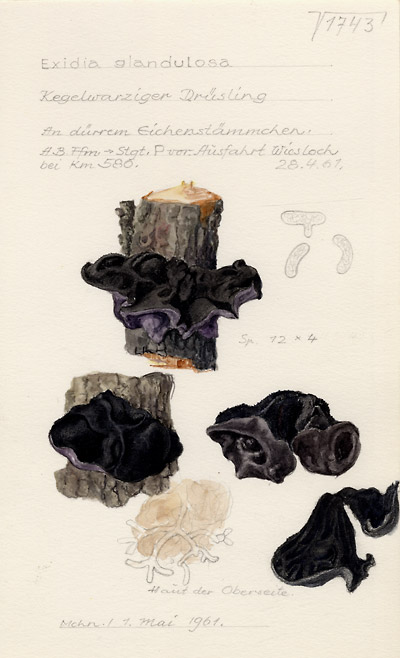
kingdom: Fungi
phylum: Basidiomycota
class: Agaricomycetes
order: Auriculariales
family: Auriculariaceae
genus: Exidia
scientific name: Exidia glandulosa
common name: Witches' butter
